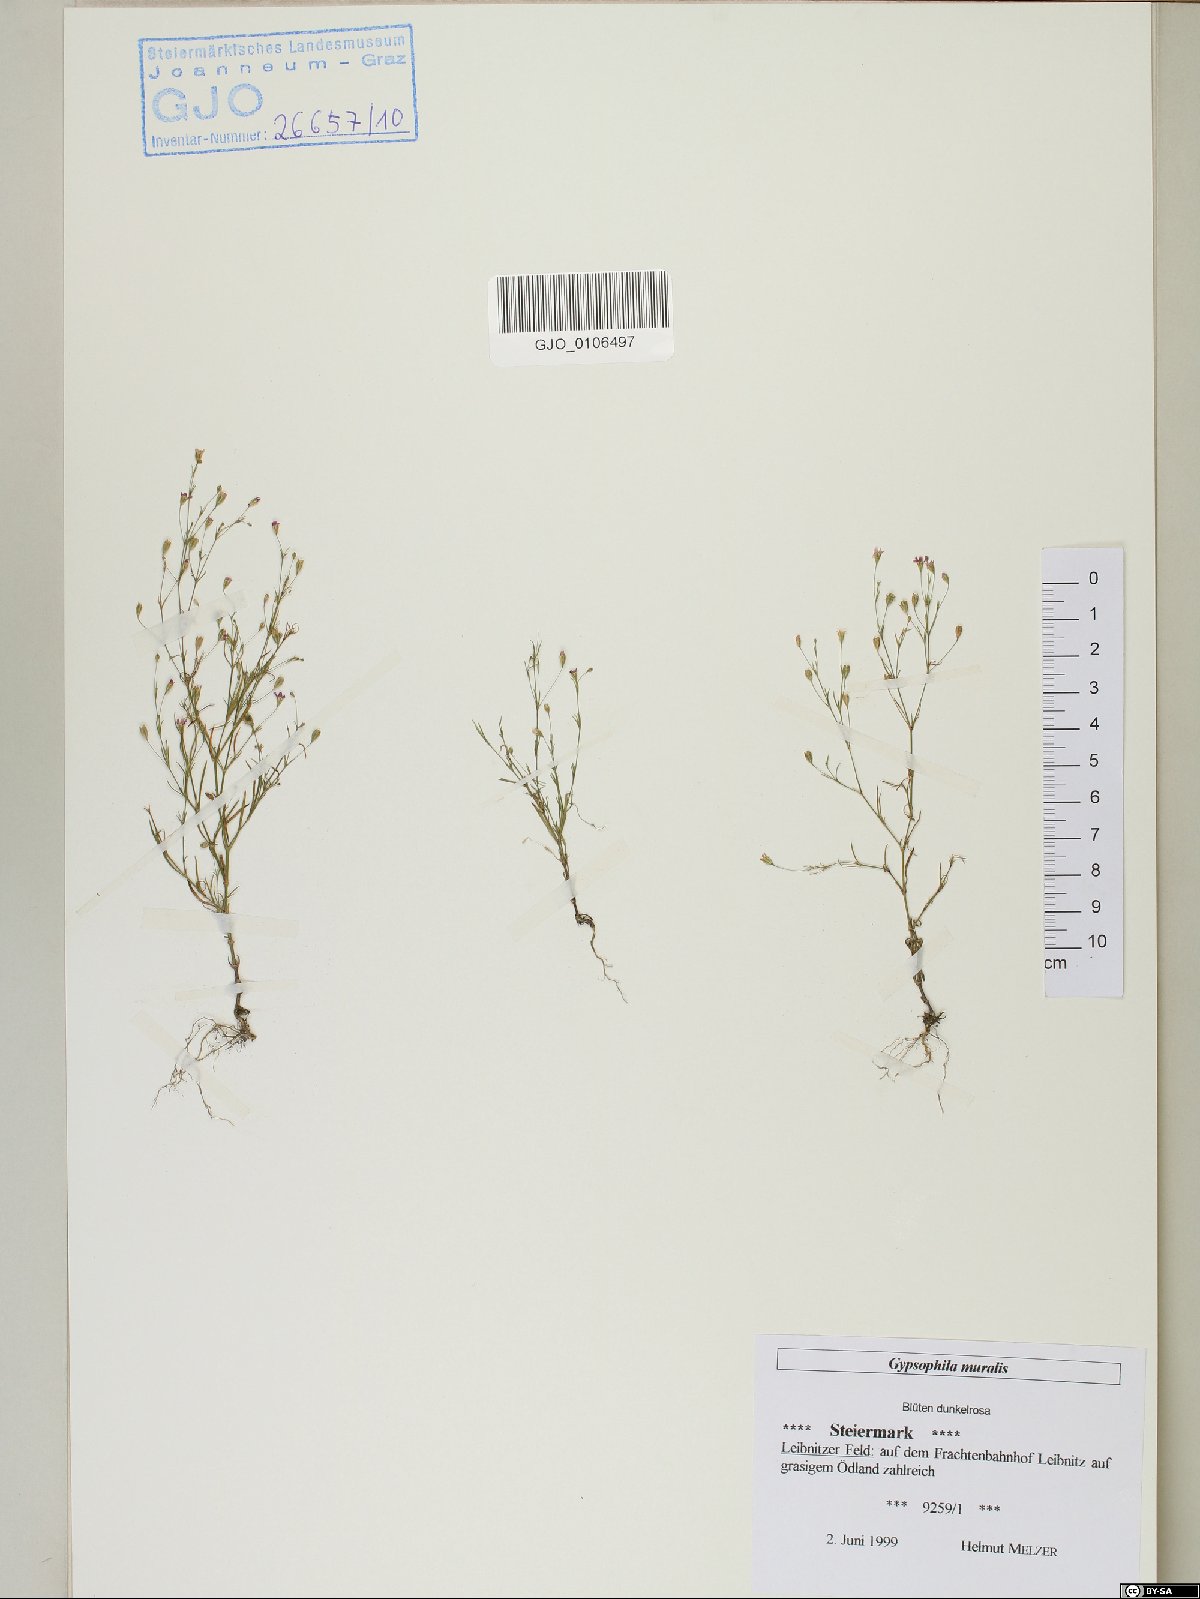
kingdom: Plantae
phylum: Tracheophyta
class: Magnoliopsida
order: Caryophyllales
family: Caryophyllaceae
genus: Psammophiliella
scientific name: Psammophiliella muralis
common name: Cushion baby's-breath
